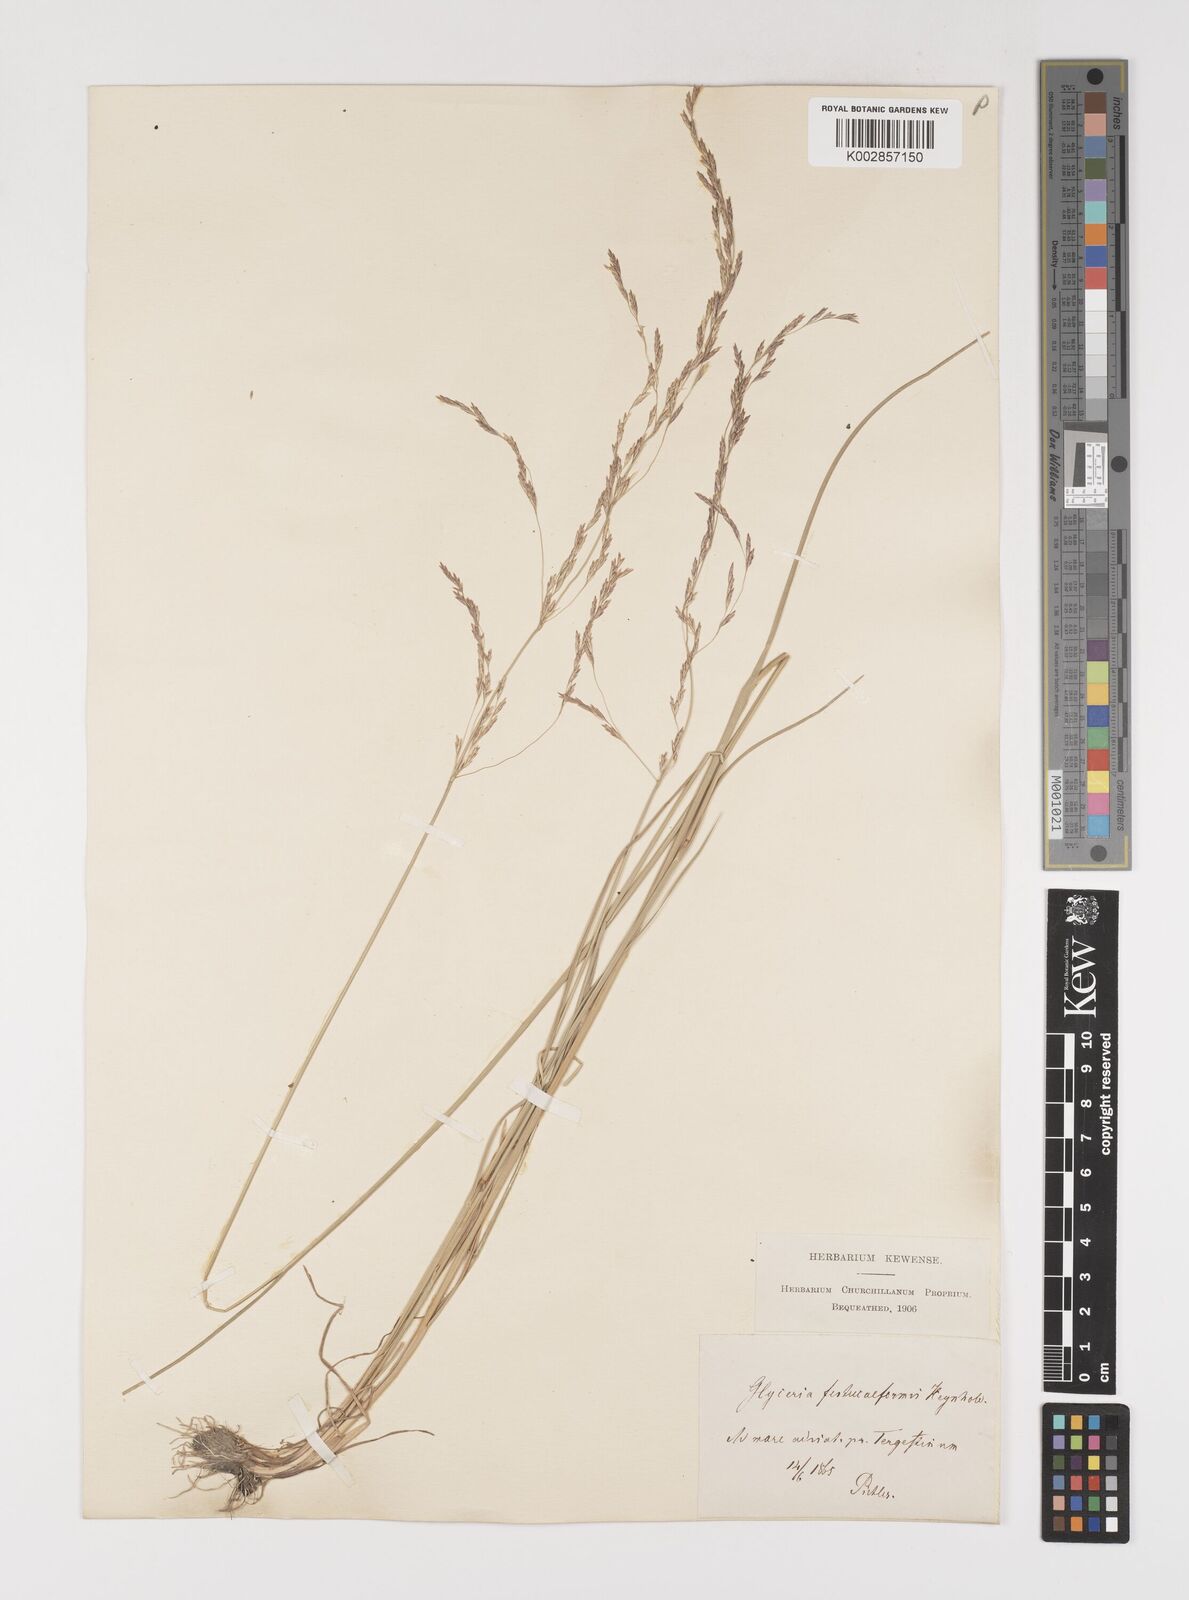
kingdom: Plantae
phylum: Tracheophyta
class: Liliopsida
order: Poales
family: Poaceae
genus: Puccinellia
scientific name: Puccinellia festuciformis
